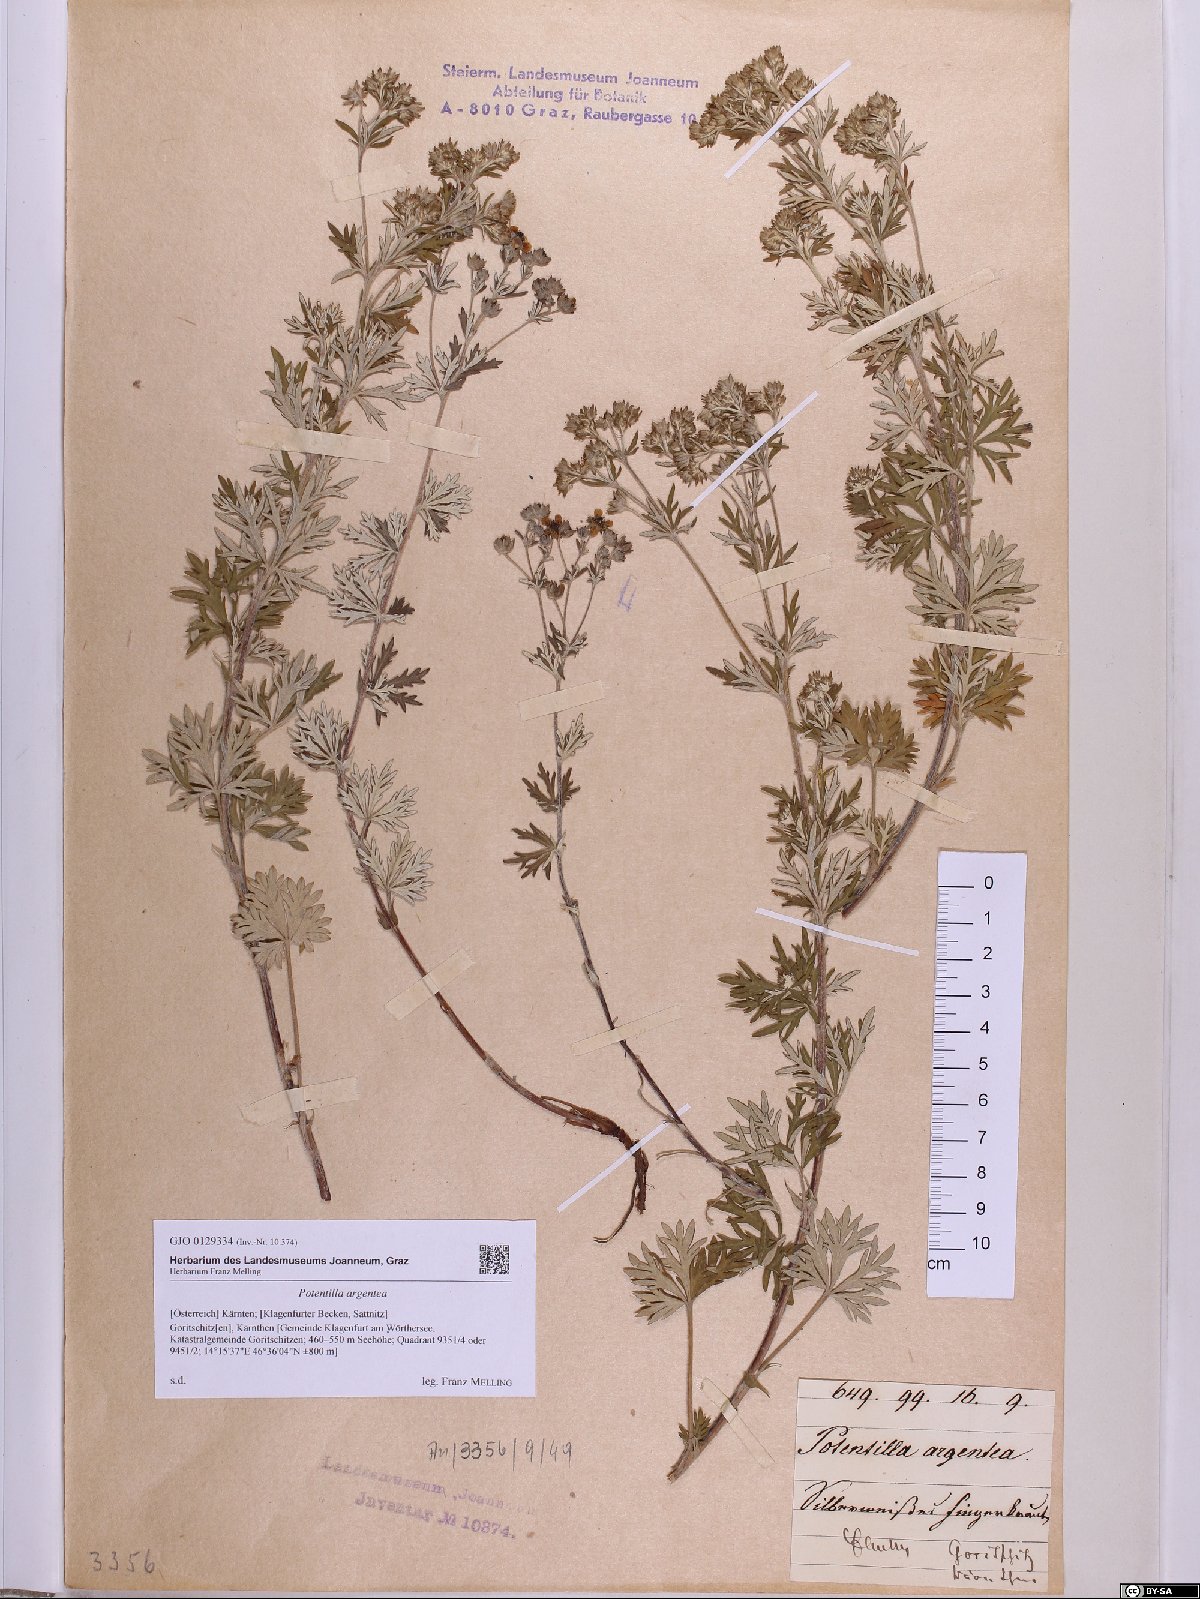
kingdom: Plantae
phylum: Tracheophyta
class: Magnoliopsida
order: Rosales
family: Rosaceae
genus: Potentilla
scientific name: Potentilla argentea
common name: Hoary cinquefoil
